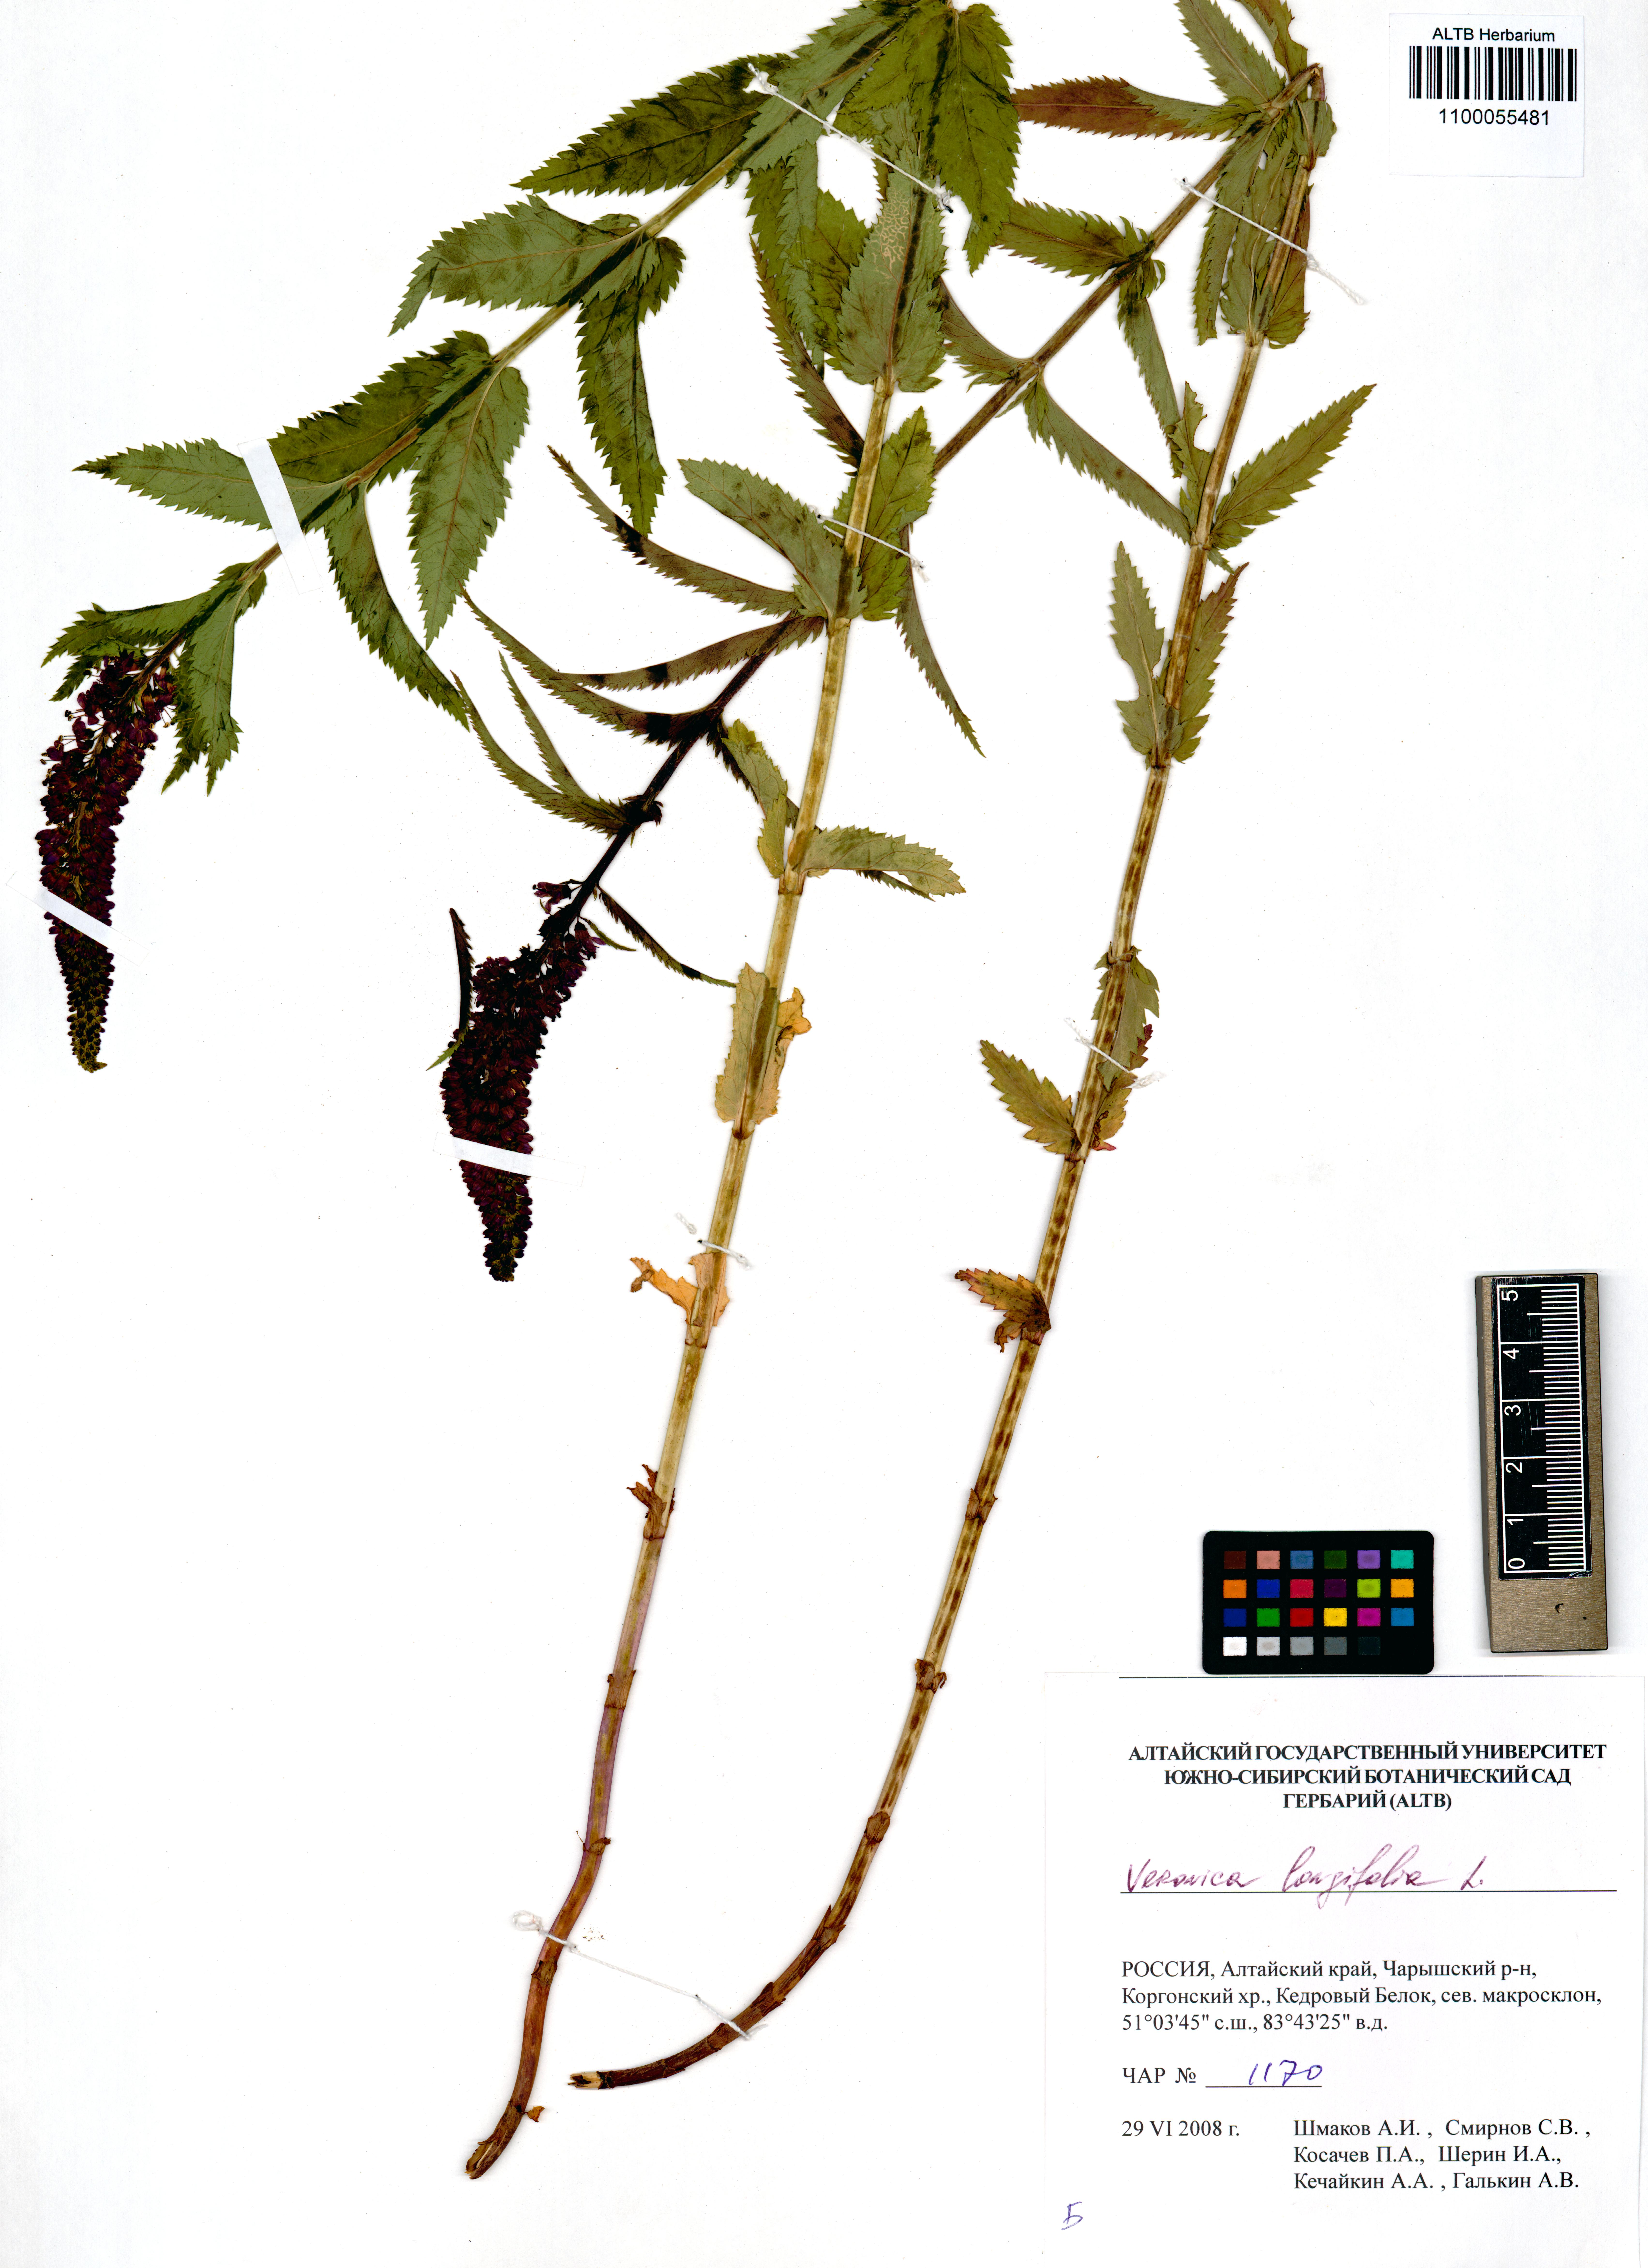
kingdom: Plantae
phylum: Tracheophyta
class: Magnoliopsida
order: Lamiales
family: Plantaginaceae
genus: Veronica
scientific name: Veronica longifolia
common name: Garden speedwell
